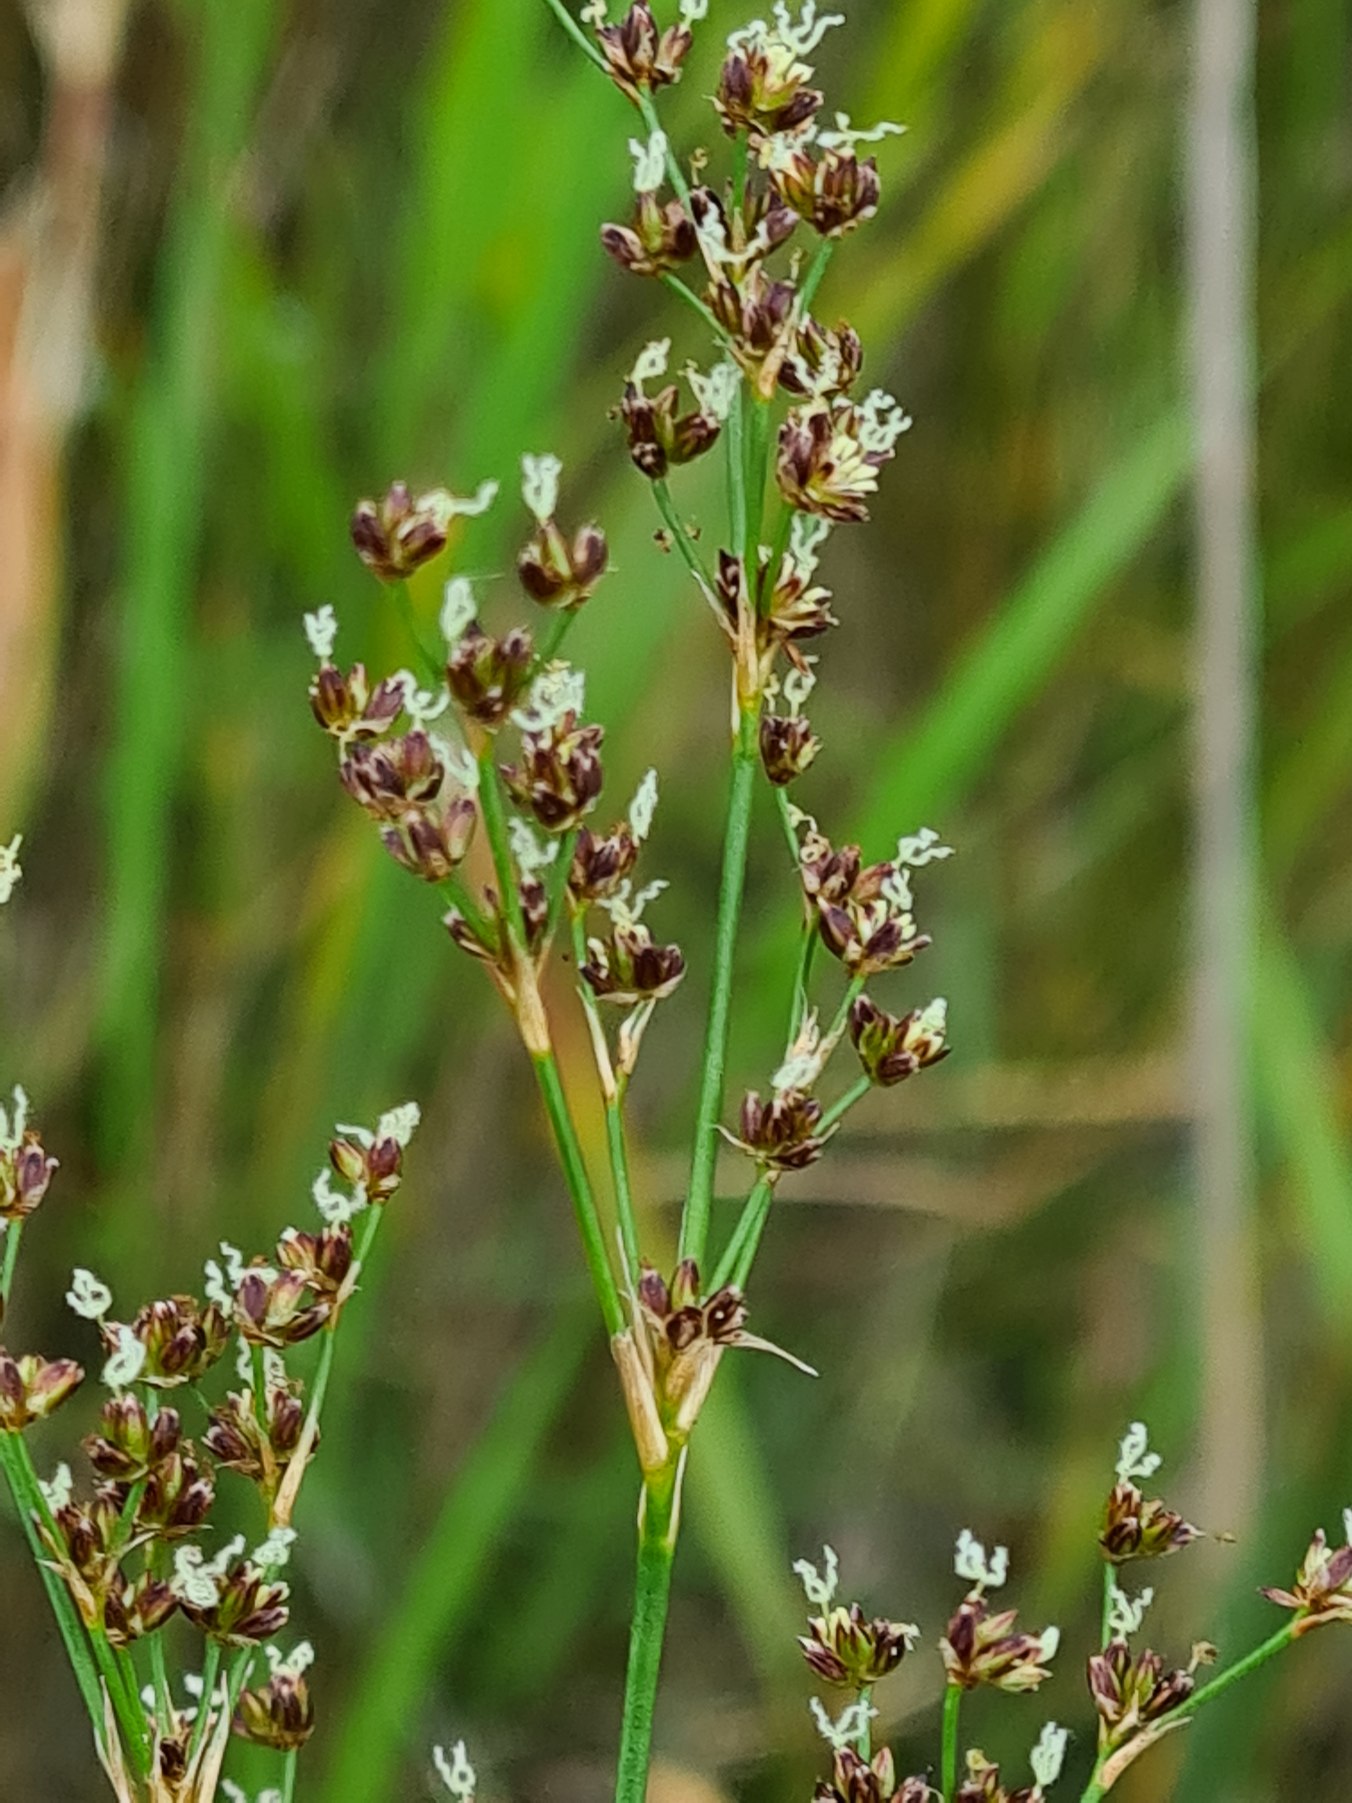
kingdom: Plantae
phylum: Tracheophyta
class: Liliopsida
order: Poales
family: Juncaceae
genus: Juncus
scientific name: Juncus articulatus
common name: Glanskapslet siv
